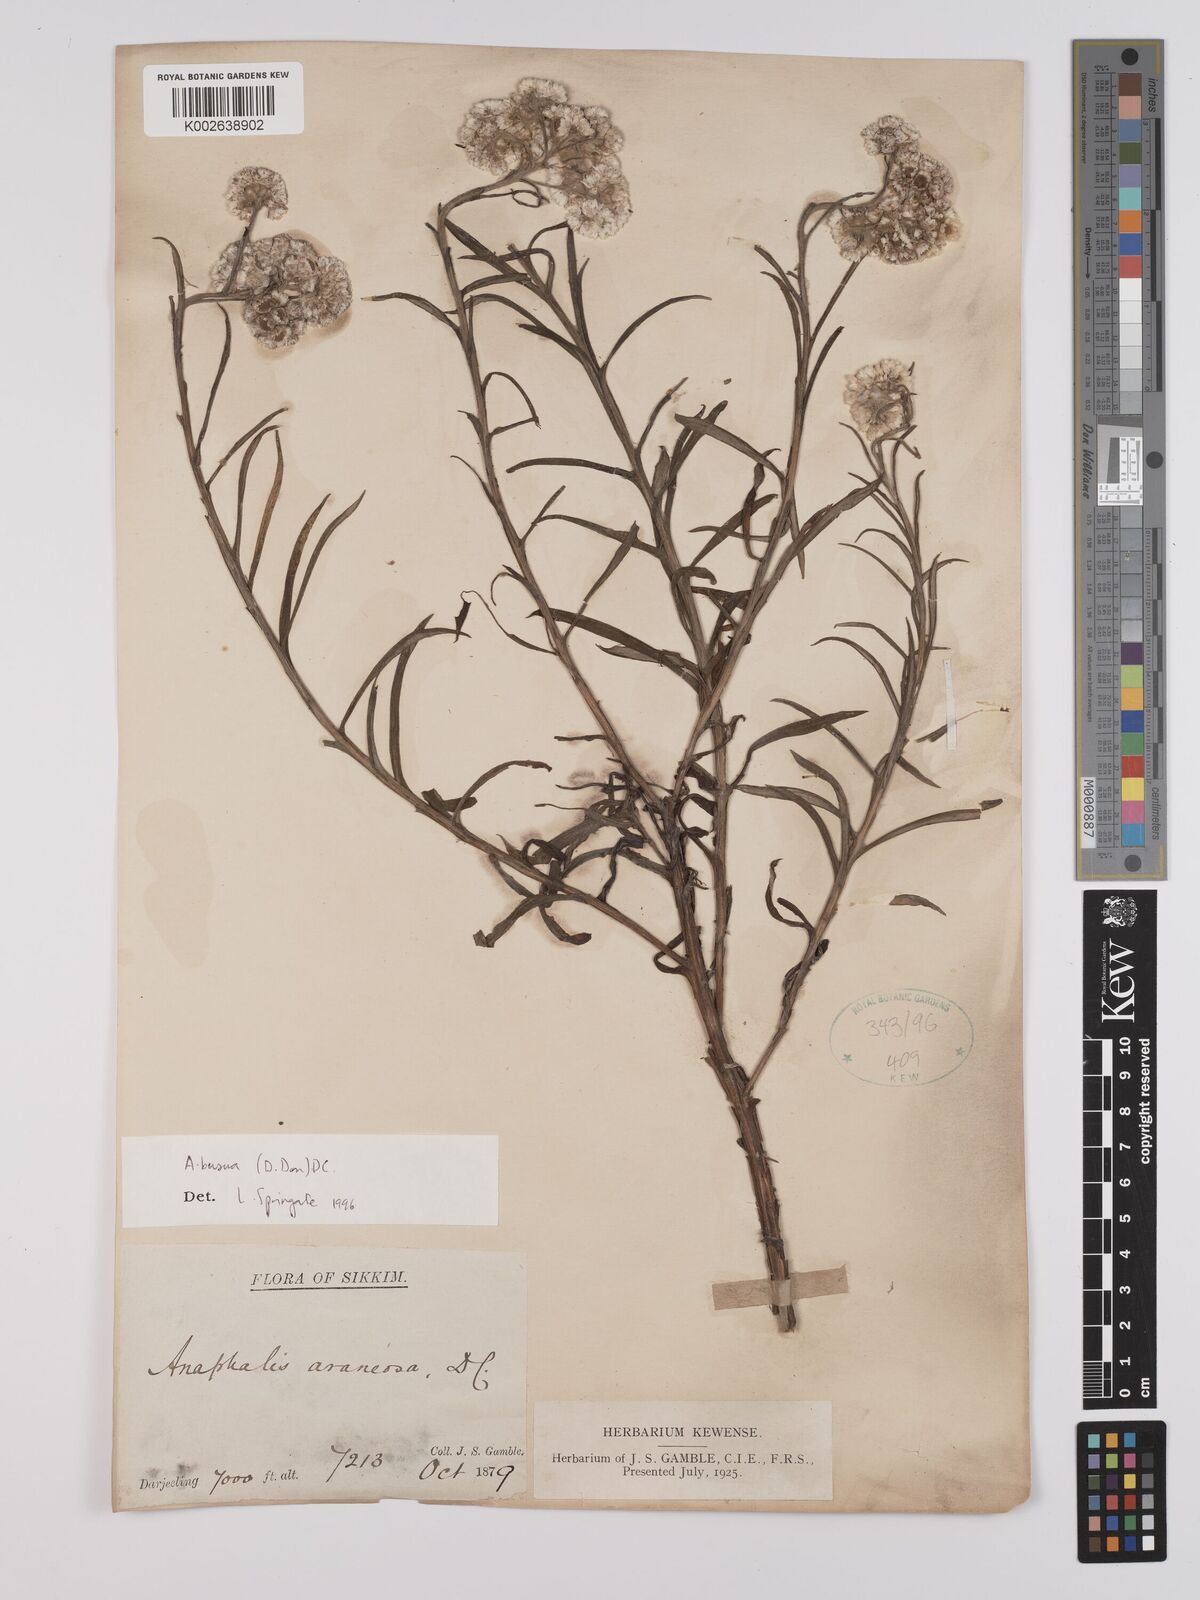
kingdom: Plantae
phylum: Tracheophyta
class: Magnoliopsida
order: Asterales
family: Asteraceae
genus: Anaphalis
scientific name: Anaphalis busua
